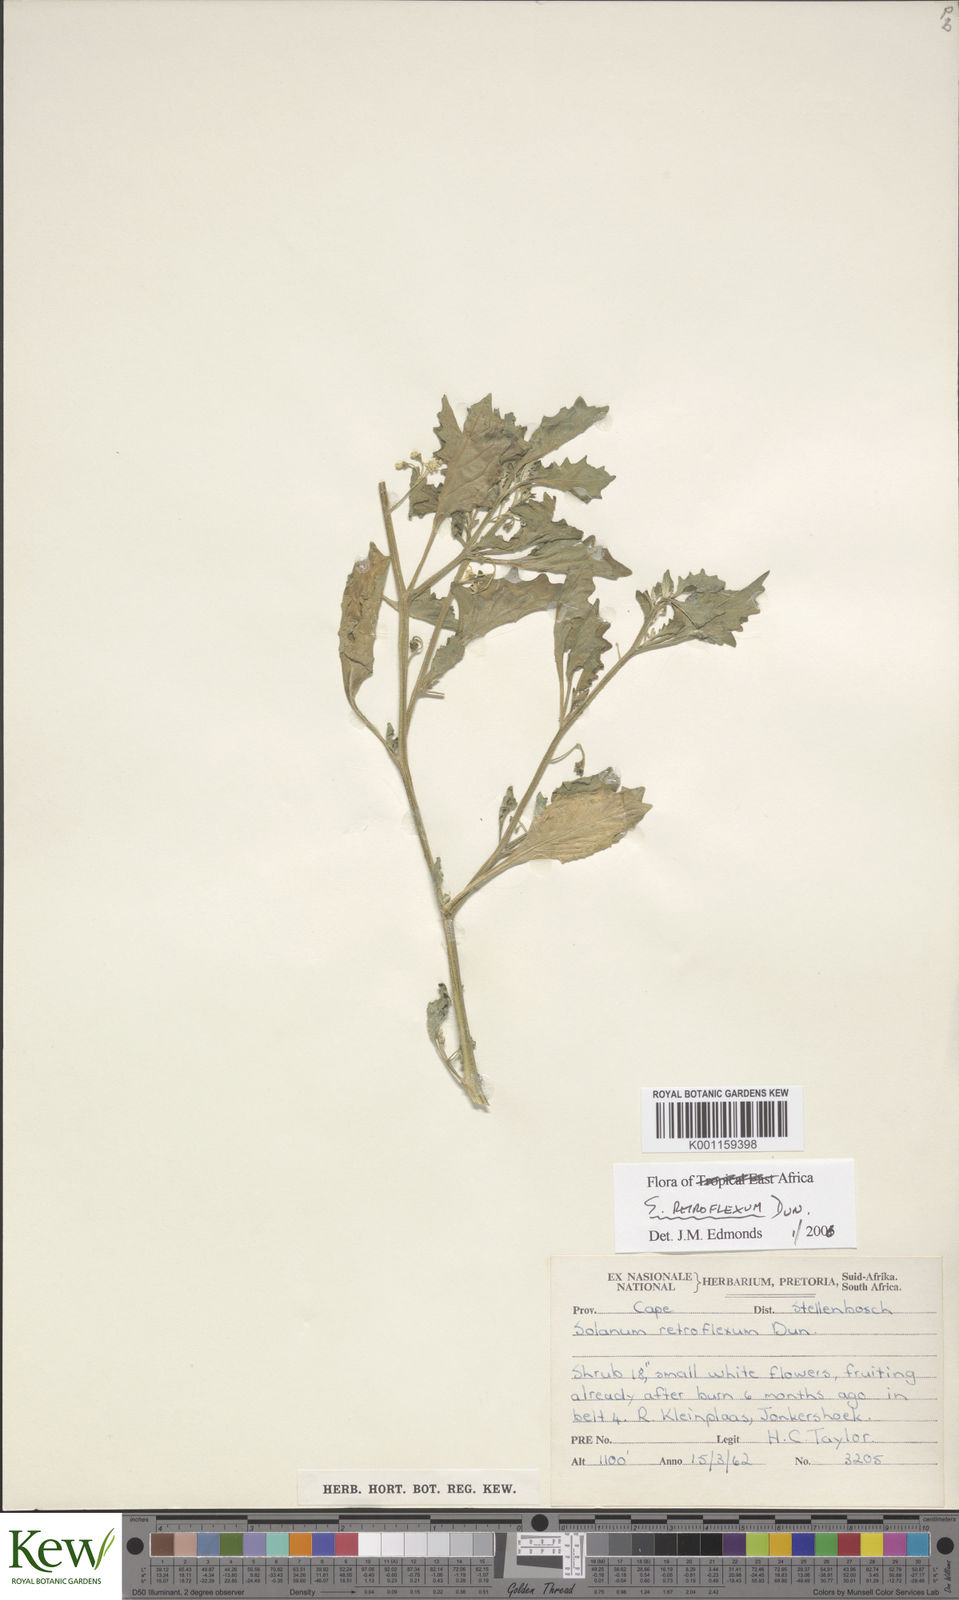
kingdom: Plantae
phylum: Tracheophyta
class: Magnoliopsida
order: Solanales
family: Solanaceae
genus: Solanum
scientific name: Solanum retroflexum
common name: Wonderberry
